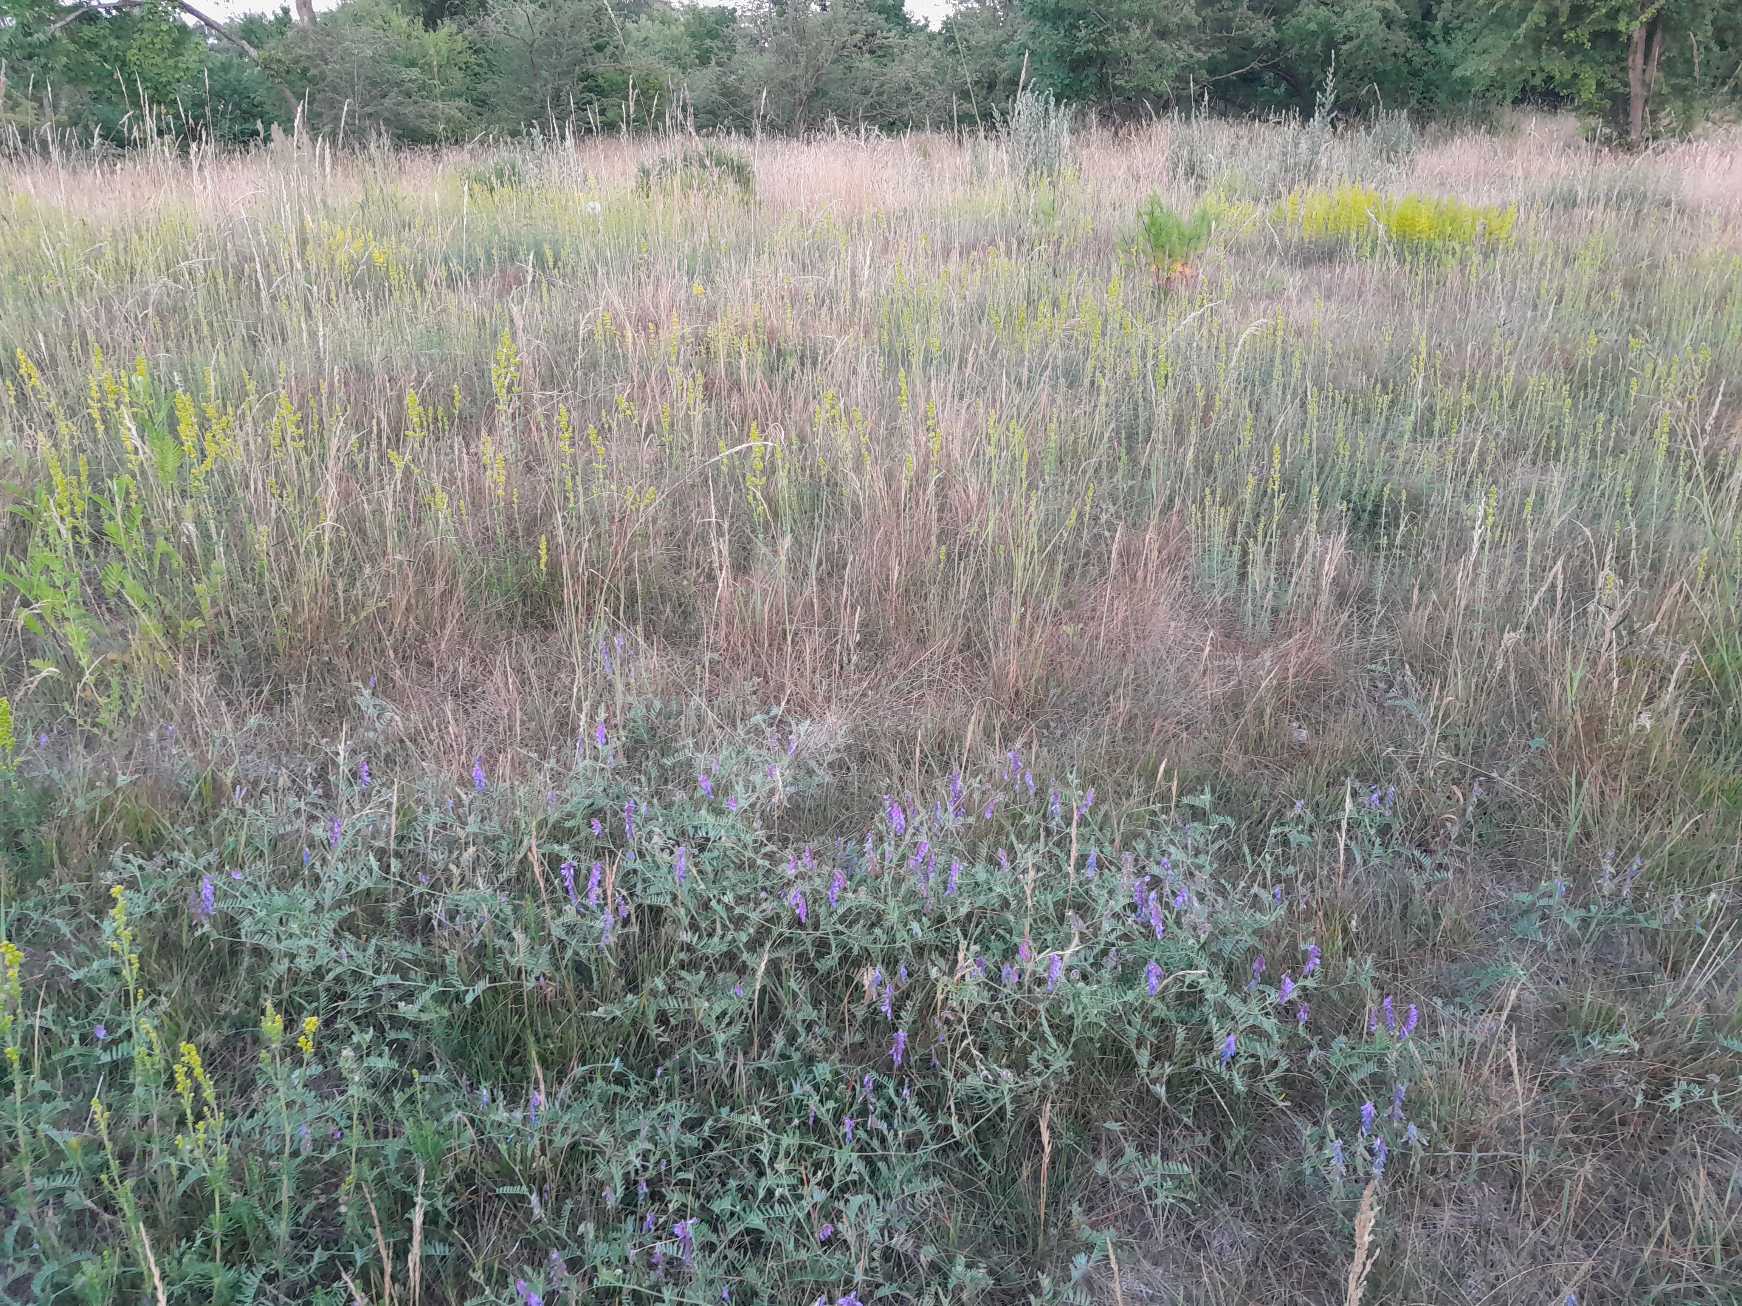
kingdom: Plantae
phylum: Tracheophyta
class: Magnoliopsida
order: Gentianales
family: Rubiaceae
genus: Galium
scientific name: Galium verum
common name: Gul snerre
